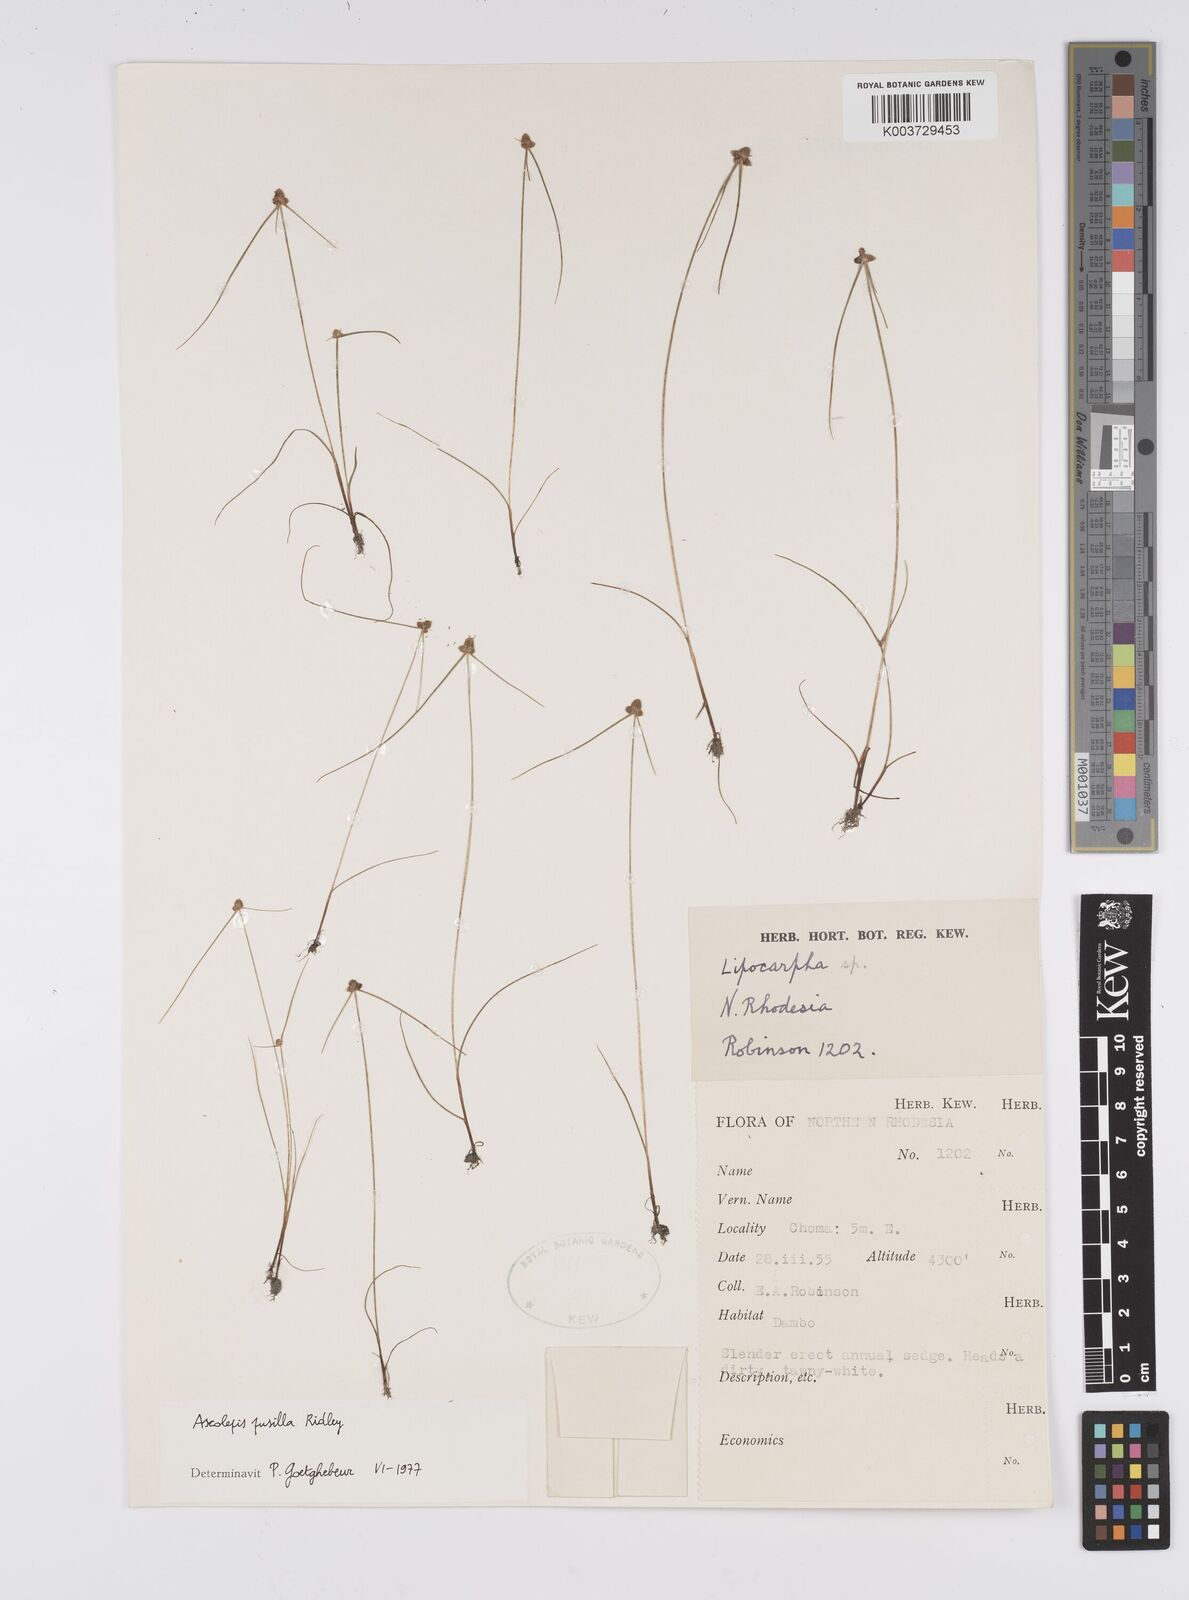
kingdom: Plantae
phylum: Tracheophyta
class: Liliopsida
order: Poales
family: Cyperaceae
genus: Cyperus
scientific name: Cyperus
